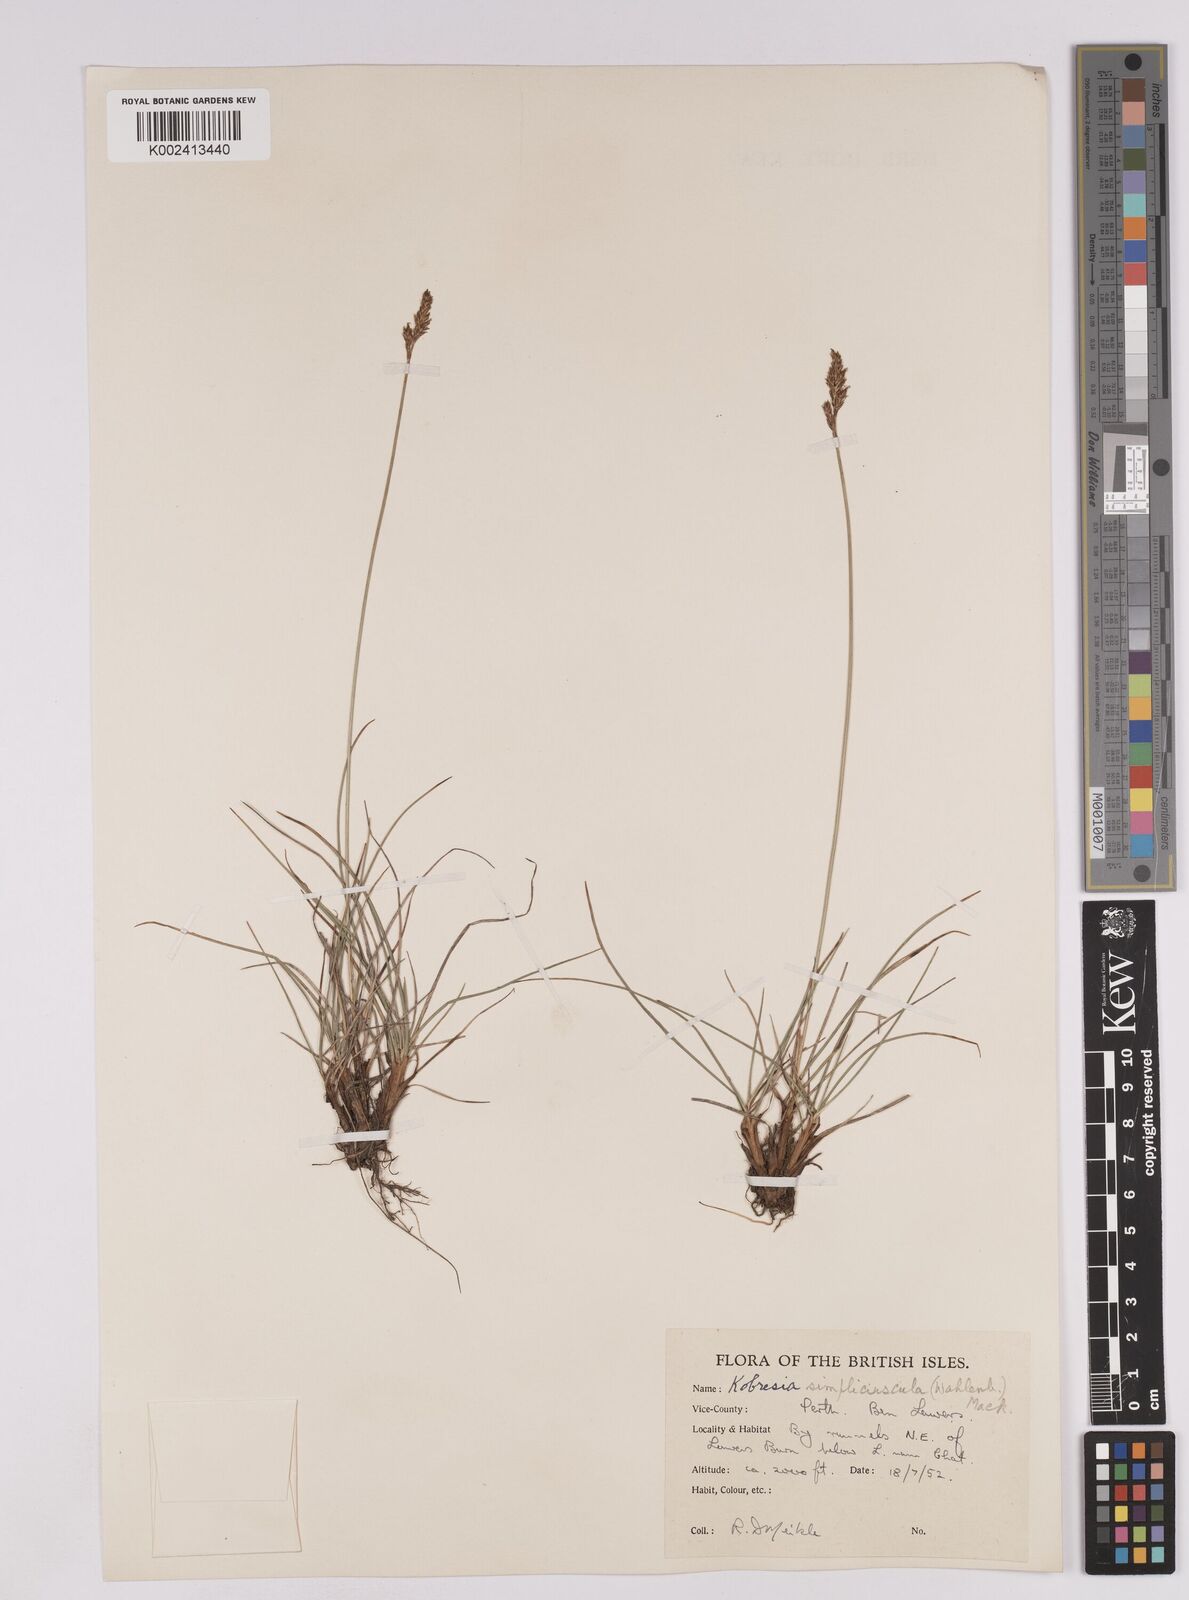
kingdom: Plantae
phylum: Tracheophyta
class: Liliopsida
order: Poales
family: Cyperaceae
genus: Carex
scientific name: Carex simpliciuscula
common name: Simple bog sedge
